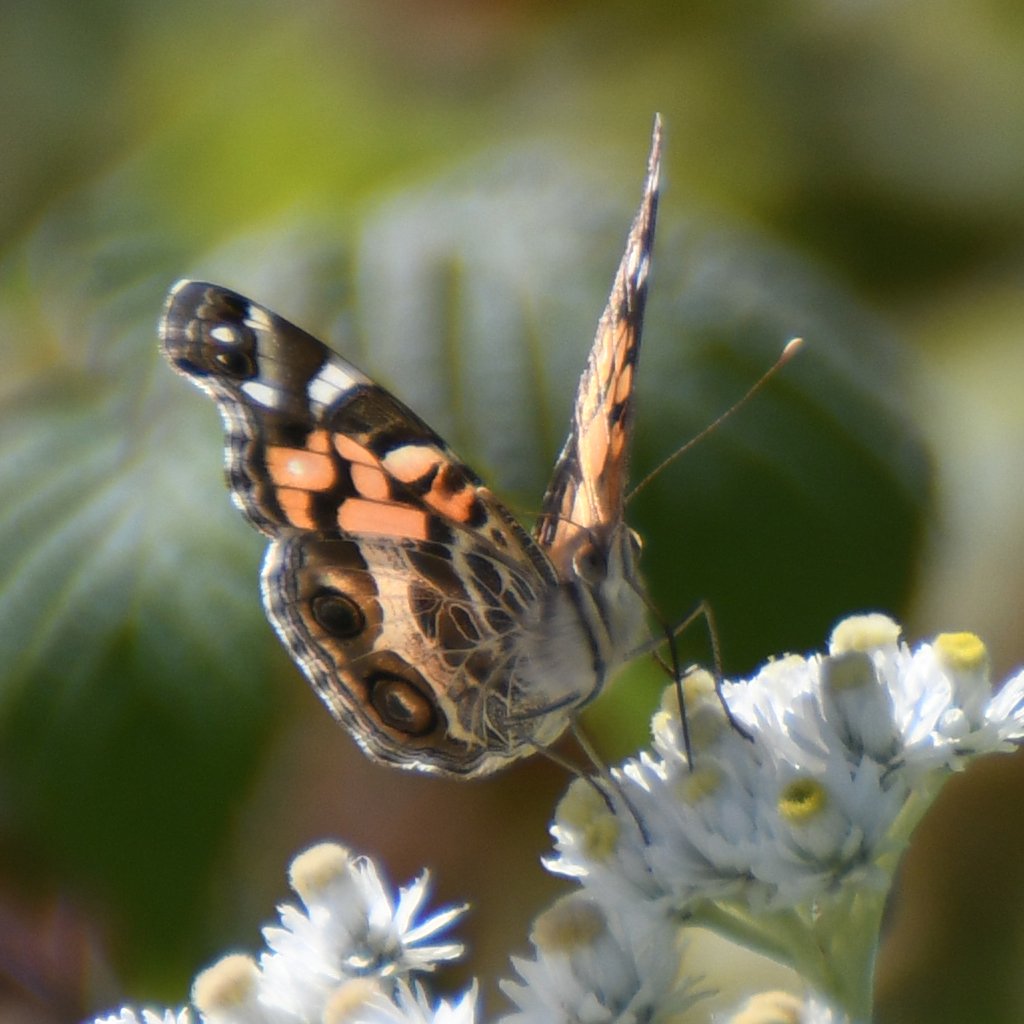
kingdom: Animalia
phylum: Arthropoda
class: Insecta
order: Lepidoptera
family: Nymphalidae
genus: Vanessa
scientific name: Vanessa virginiensis
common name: American Lady
